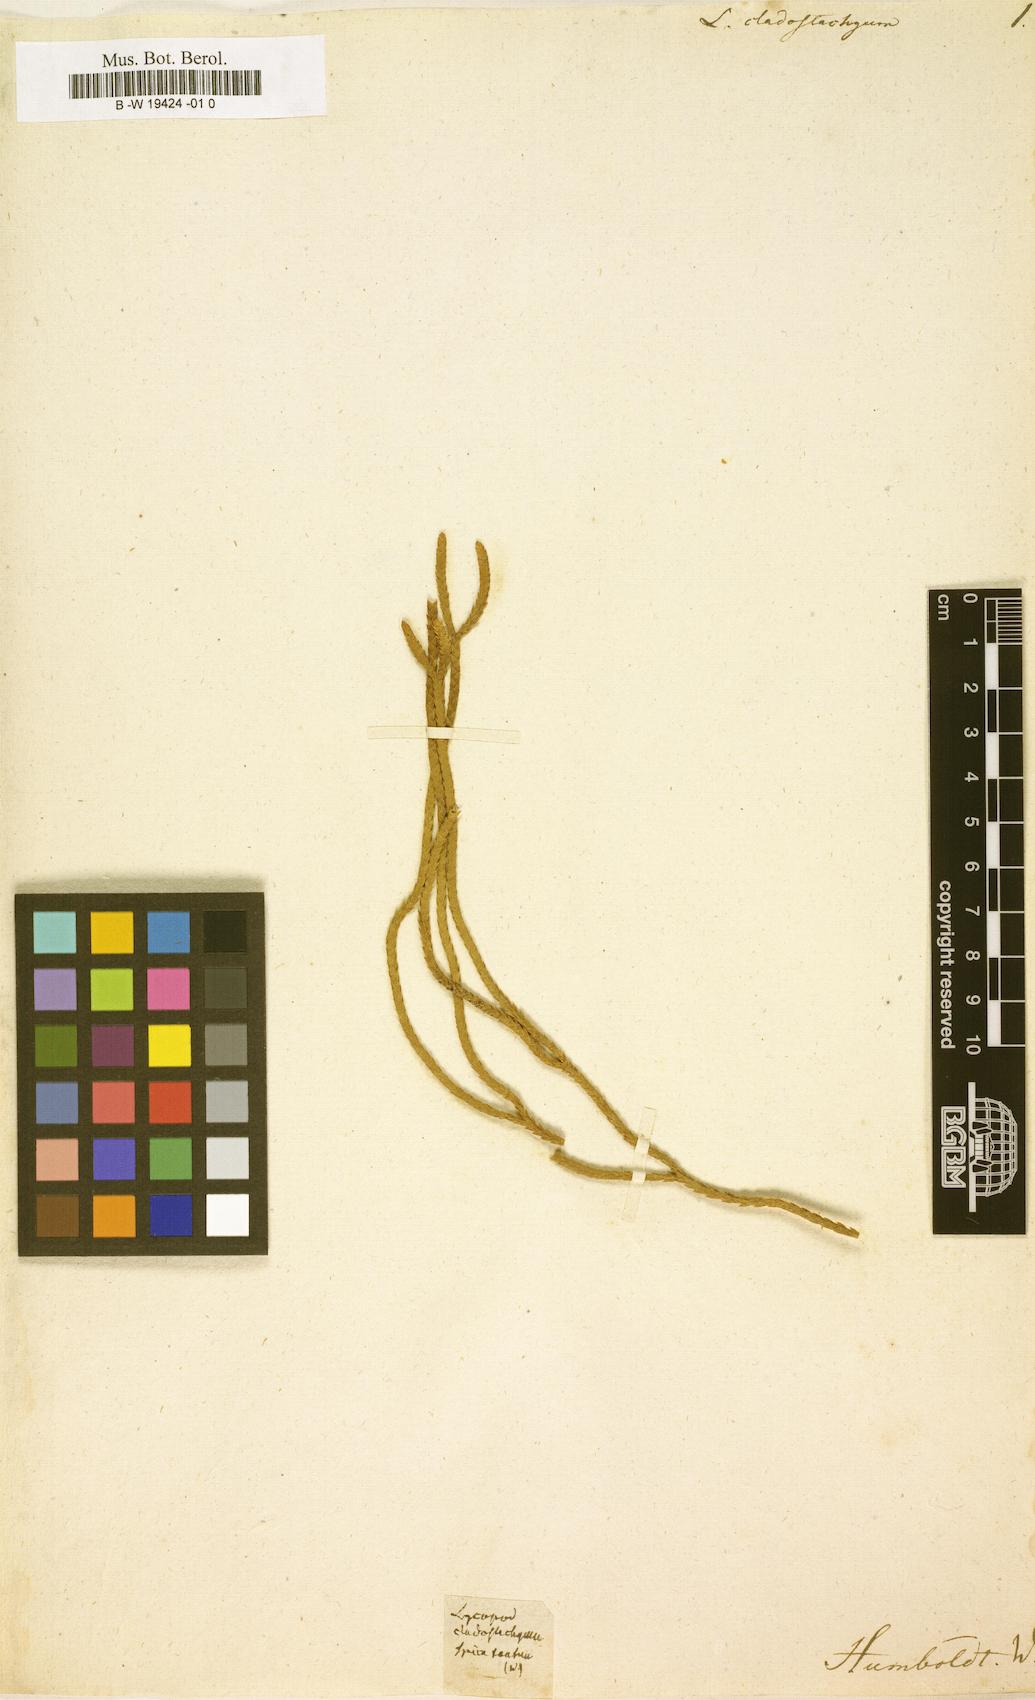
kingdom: Plantae
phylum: Tracheophyta
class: Lycopodiopsida
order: Lycopodiales
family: Lycopodiaceae
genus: Lycopodium
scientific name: Lycopodium
